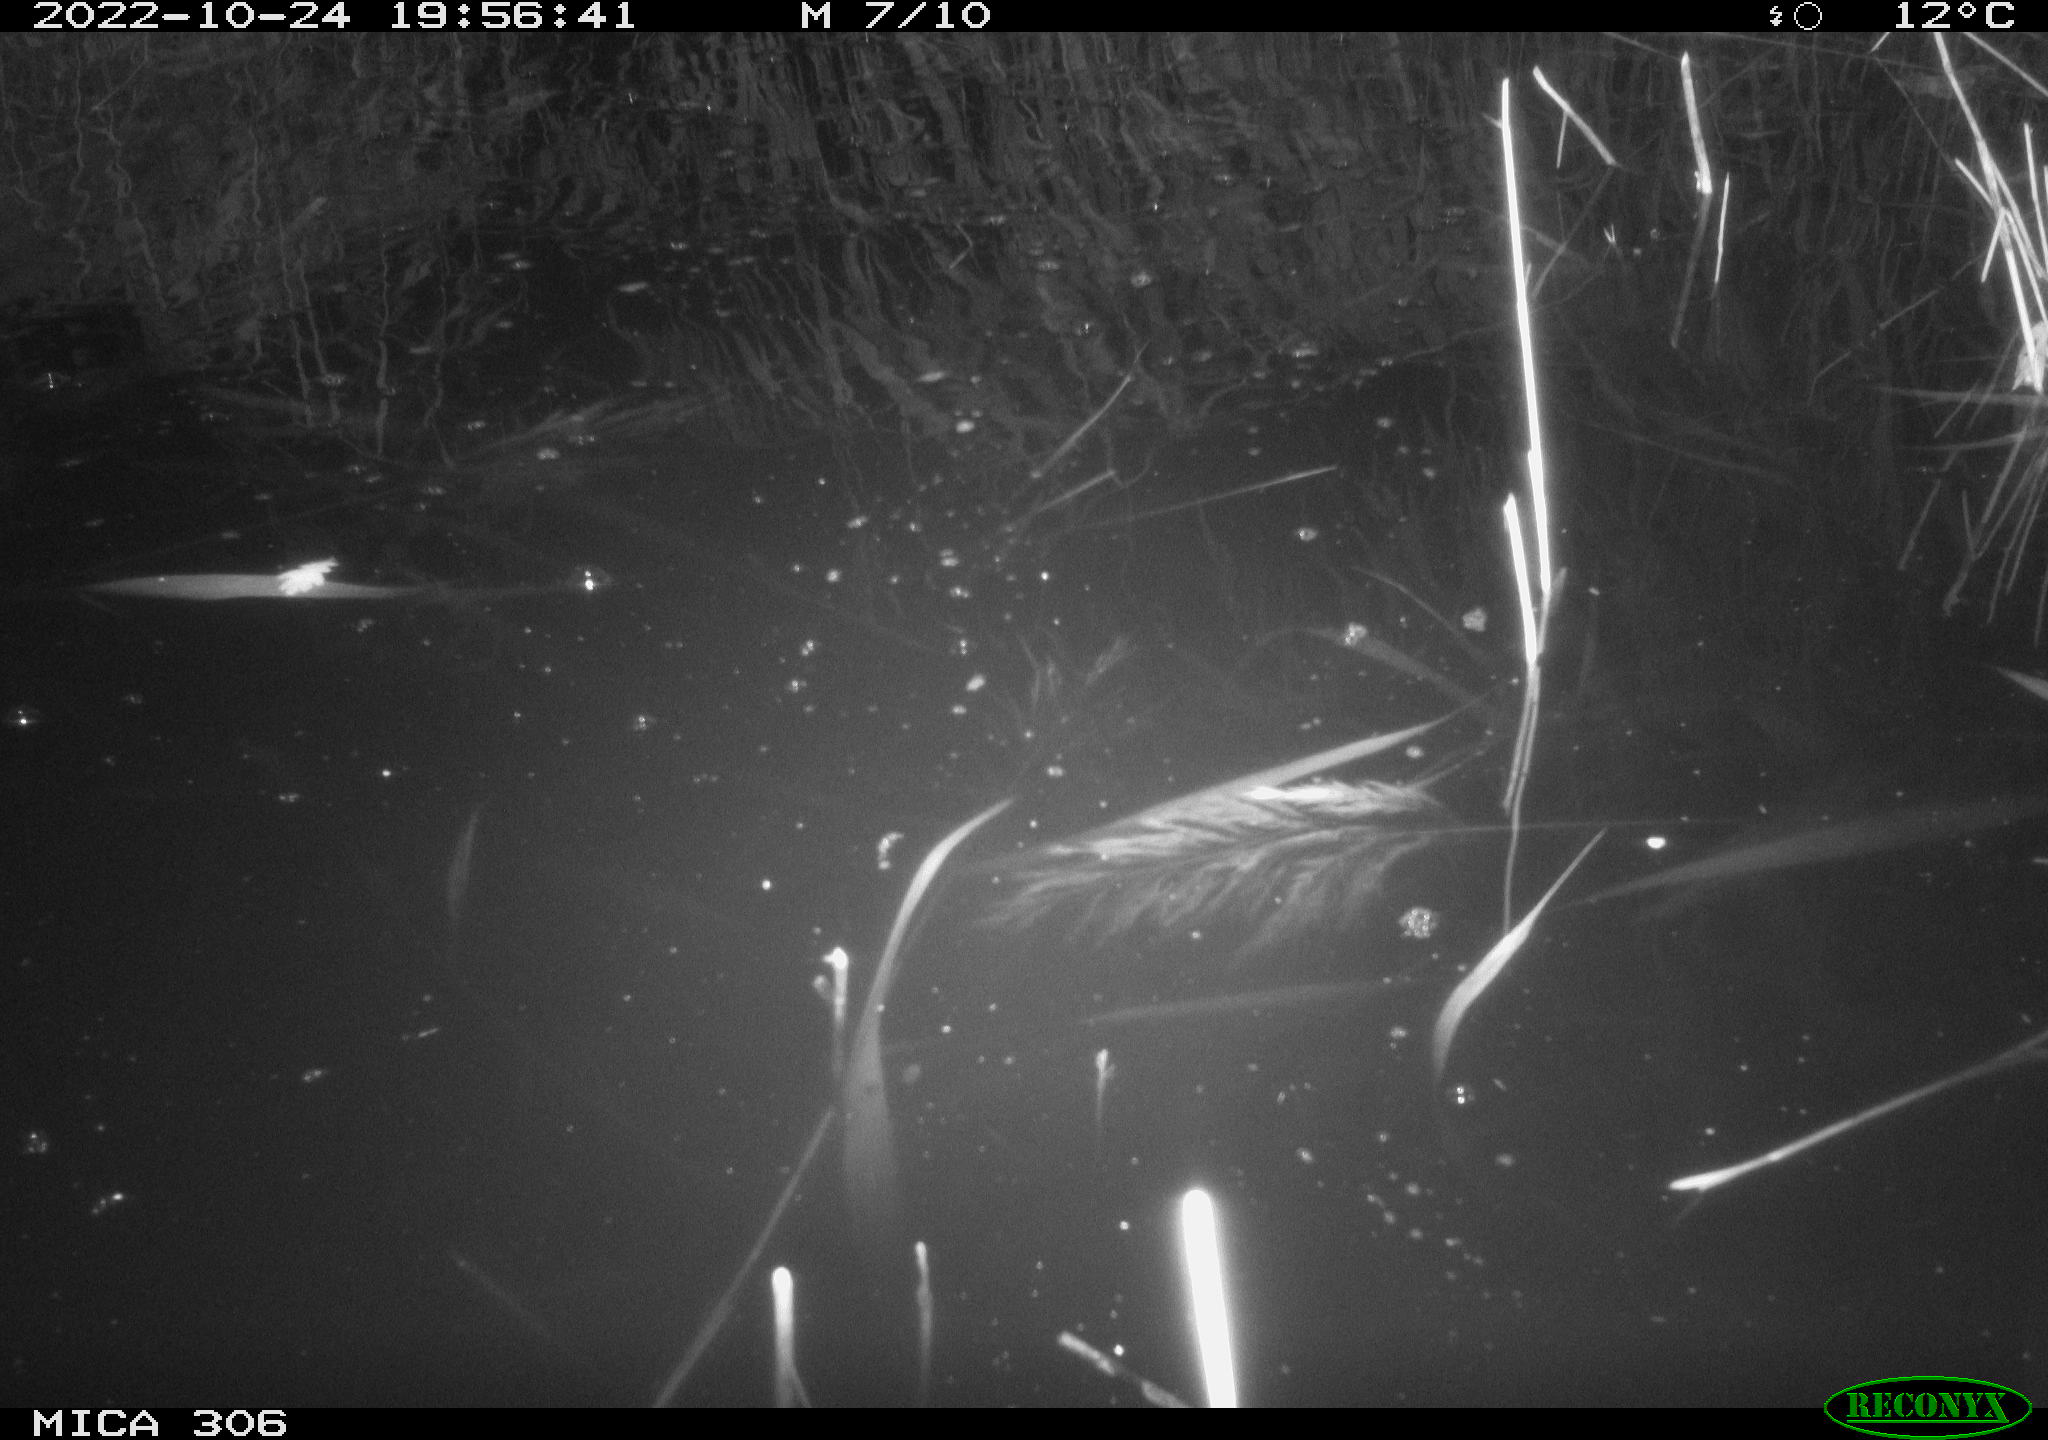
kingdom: Animalia
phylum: Chordata
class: Mammalia
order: Rodentia
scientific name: Rodentia
